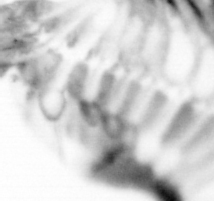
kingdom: Animalia
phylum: Annelida
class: Polychaeta
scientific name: Polychaeta
